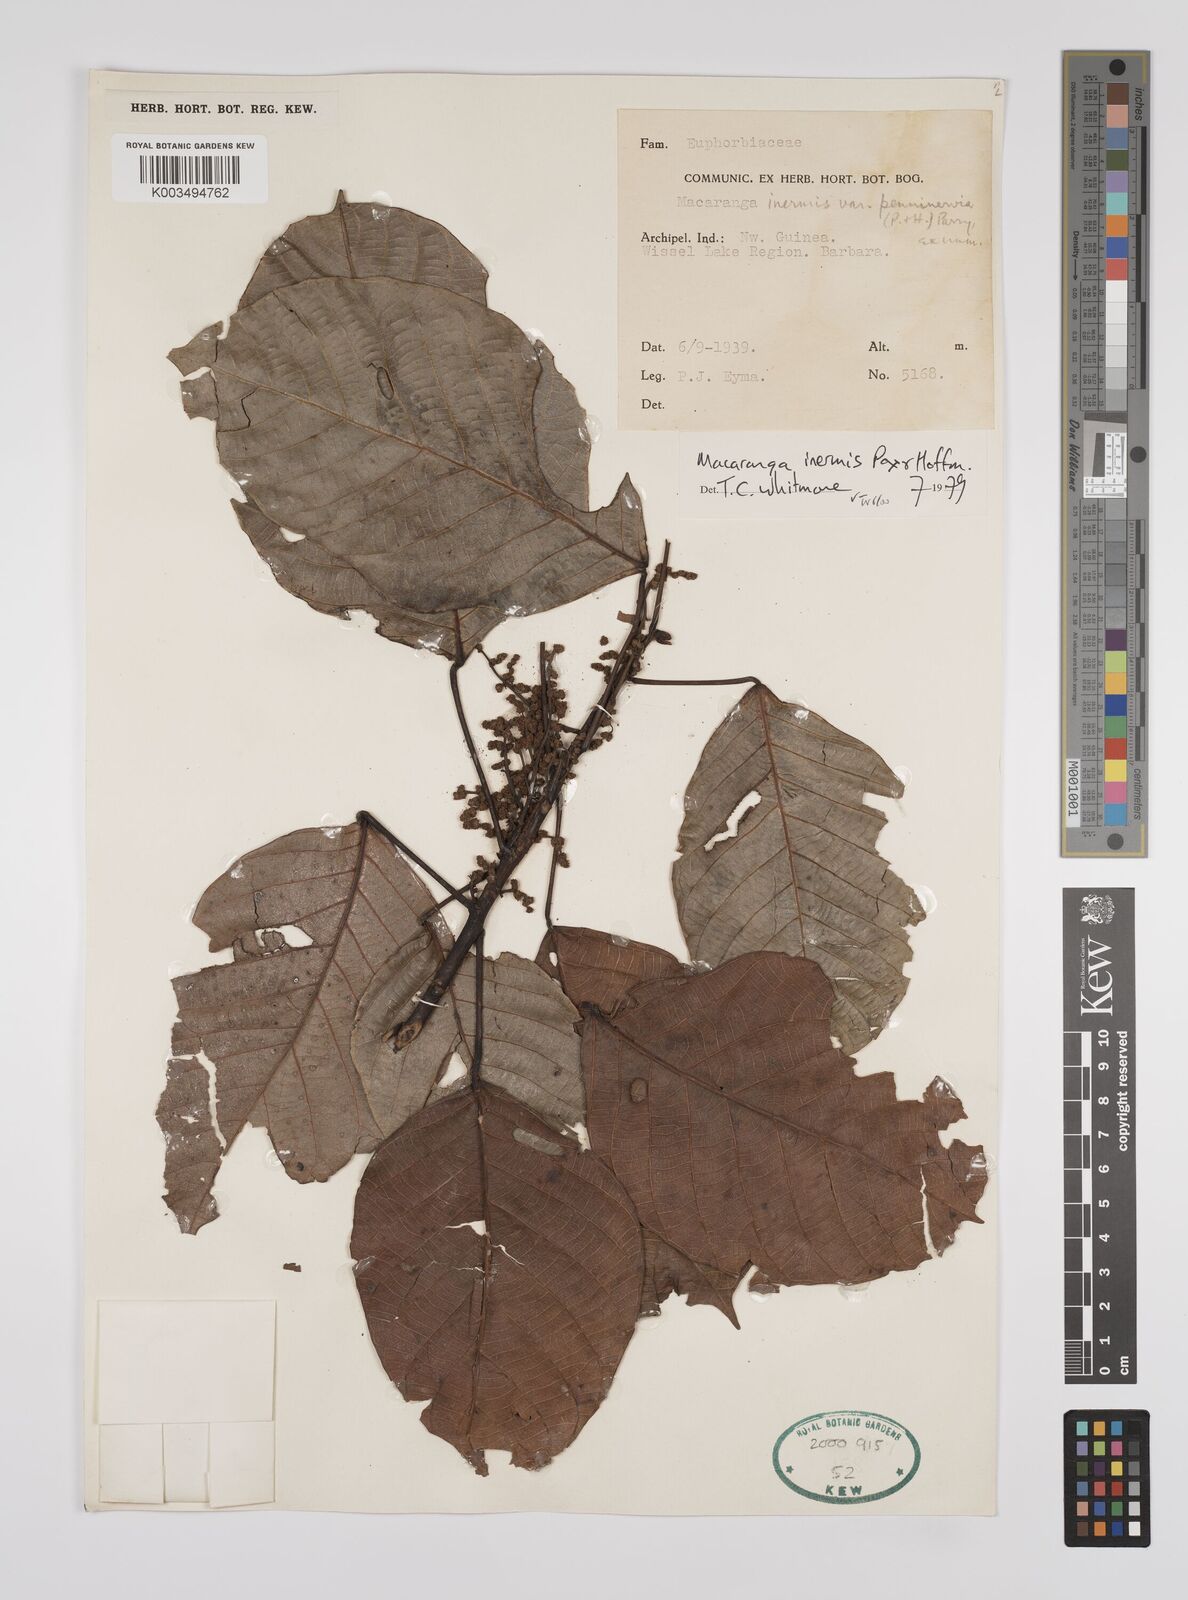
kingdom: Plantae
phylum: Tracheophyta
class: Magnoliopsida
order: Malpighiales
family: Euphorbiaceae
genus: Macaranga
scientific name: Macaranga inermis
